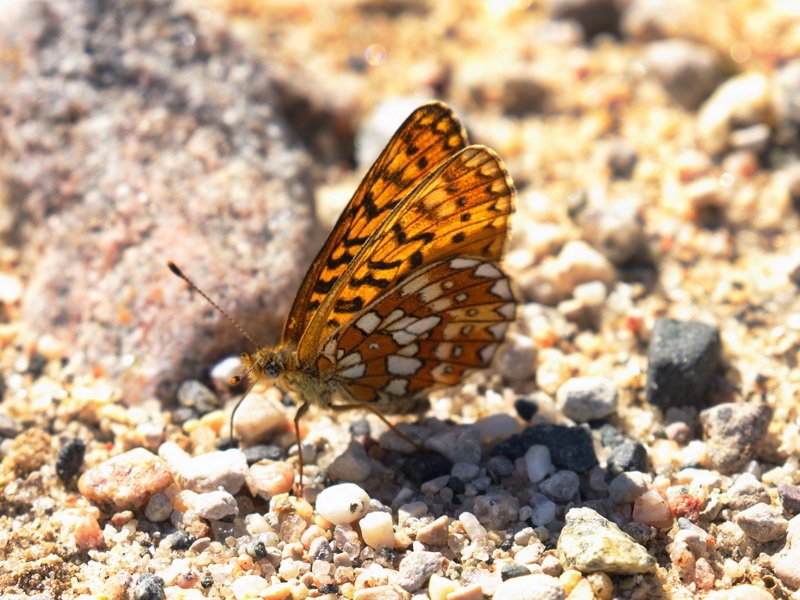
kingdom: Animalia
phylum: Arthropoda
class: Insecta
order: Lepidoptera
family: Nymphalidae
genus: Boloria
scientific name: Boloria eunomia
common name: Bog Fritillary
